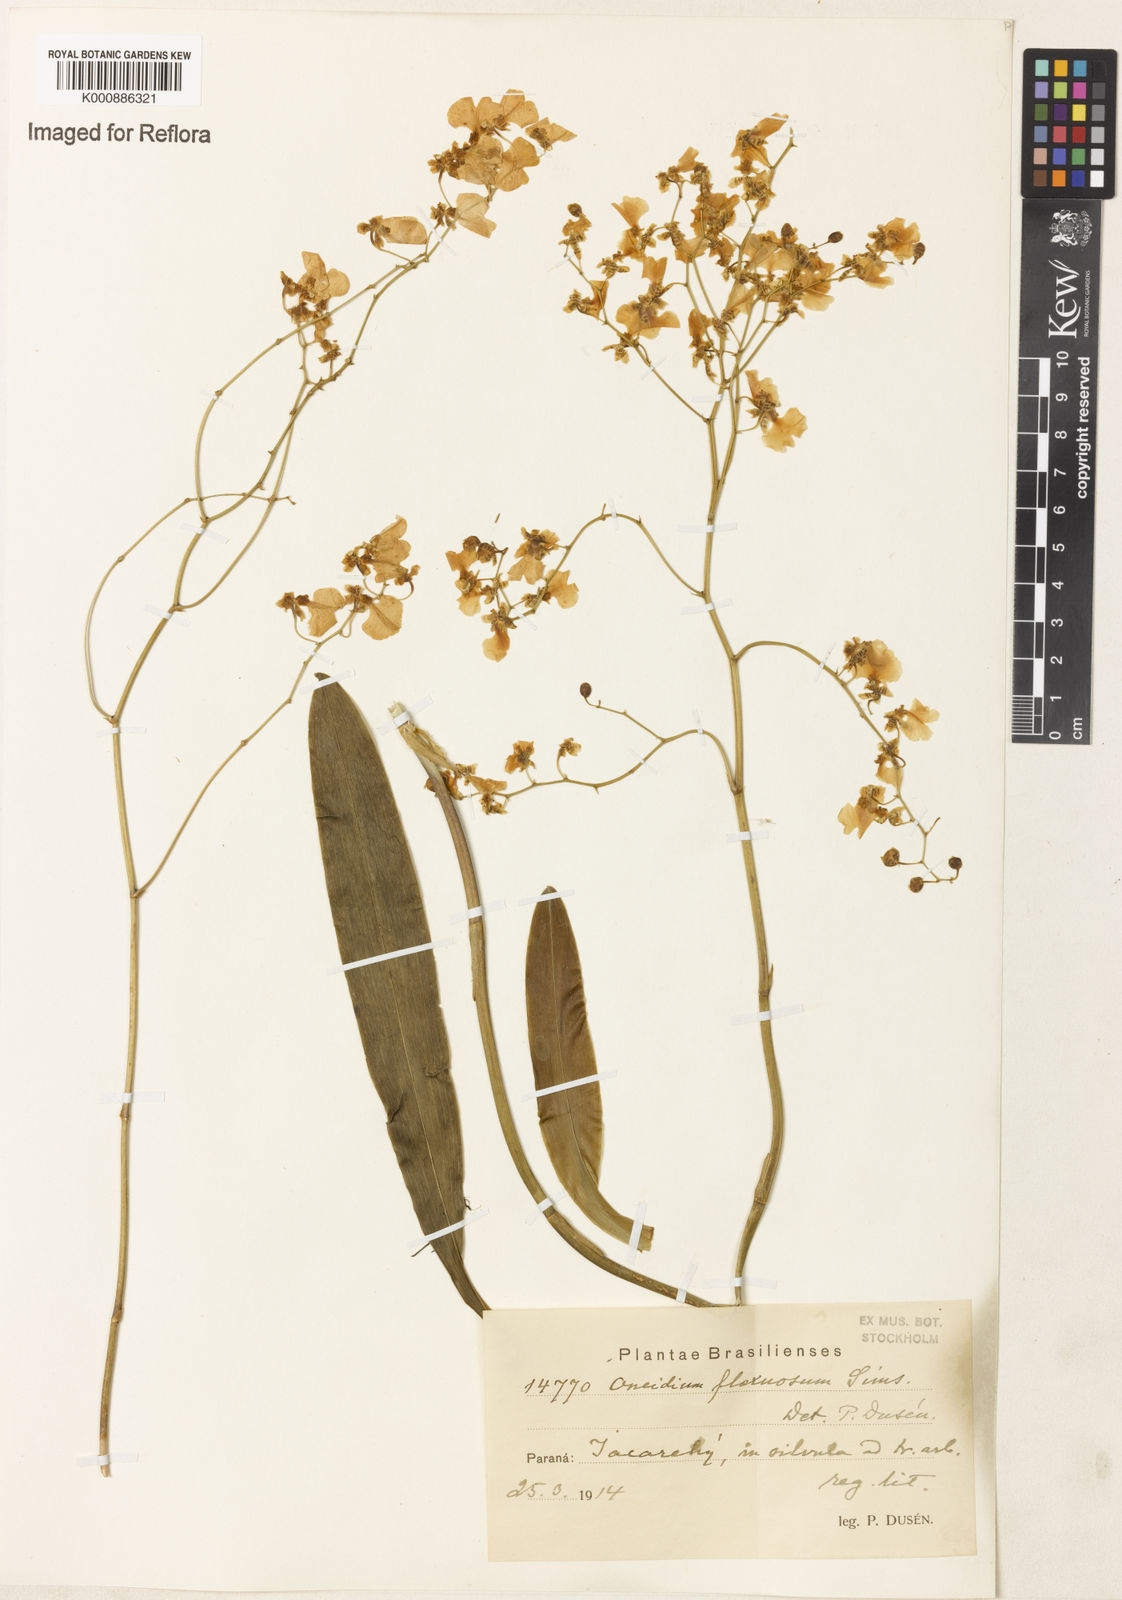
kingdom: Plantae
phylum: Tracheophyta
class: Liliopsida
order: Asparagales
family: Orchidaceae
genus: Gomesa
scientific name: Gomesa flexuosa
